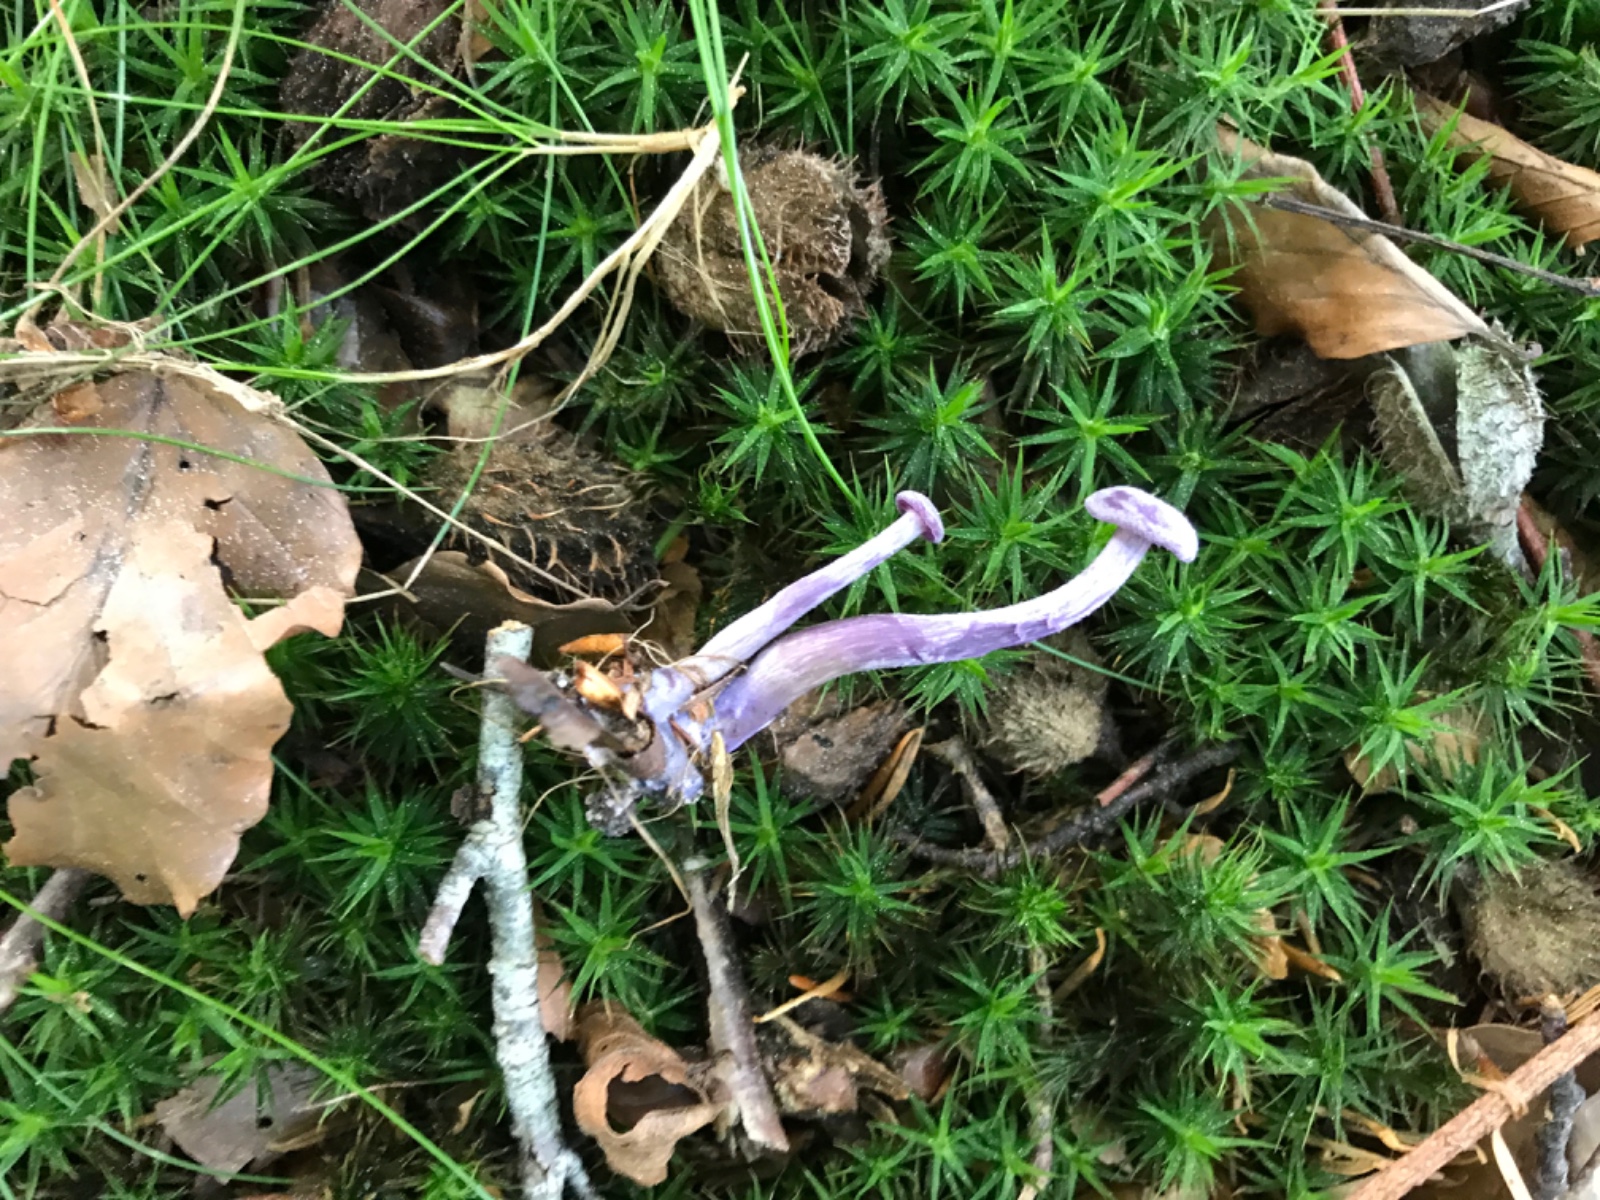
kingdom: Fungi
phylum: Basidiomycota
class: Agaricomycetes
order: Agaricales
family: Hydnangiaceae
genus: Laccaria
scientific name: Laccaria amethystina
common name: violet ametysthat
